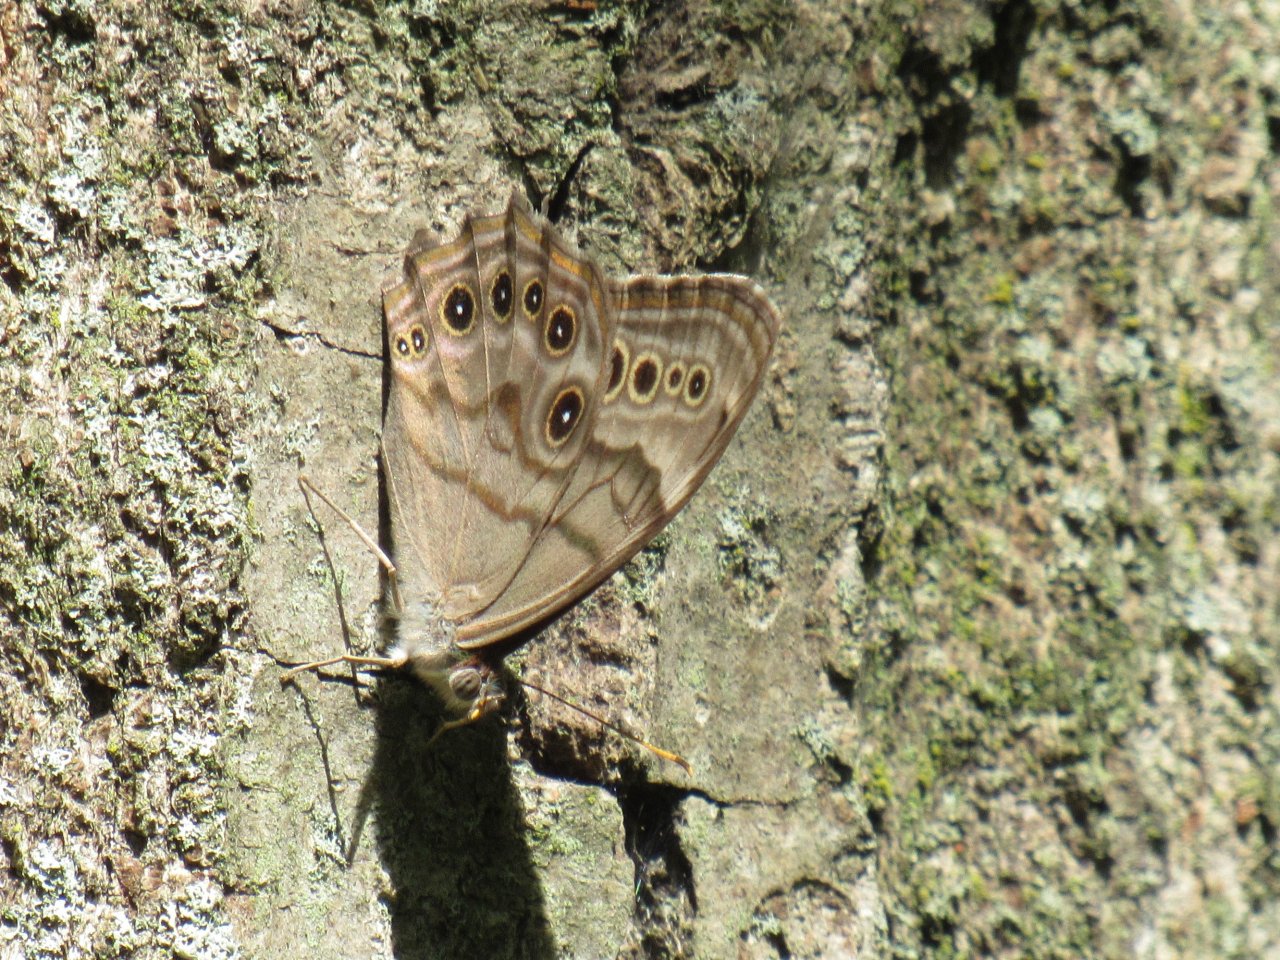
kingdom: Animalia
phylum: Arthropoda
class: Insecta
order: Lepidoptera
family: Nymphalidae
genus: Lethe
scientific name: Lethe anthedon
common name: Northern Pearly-Eye
